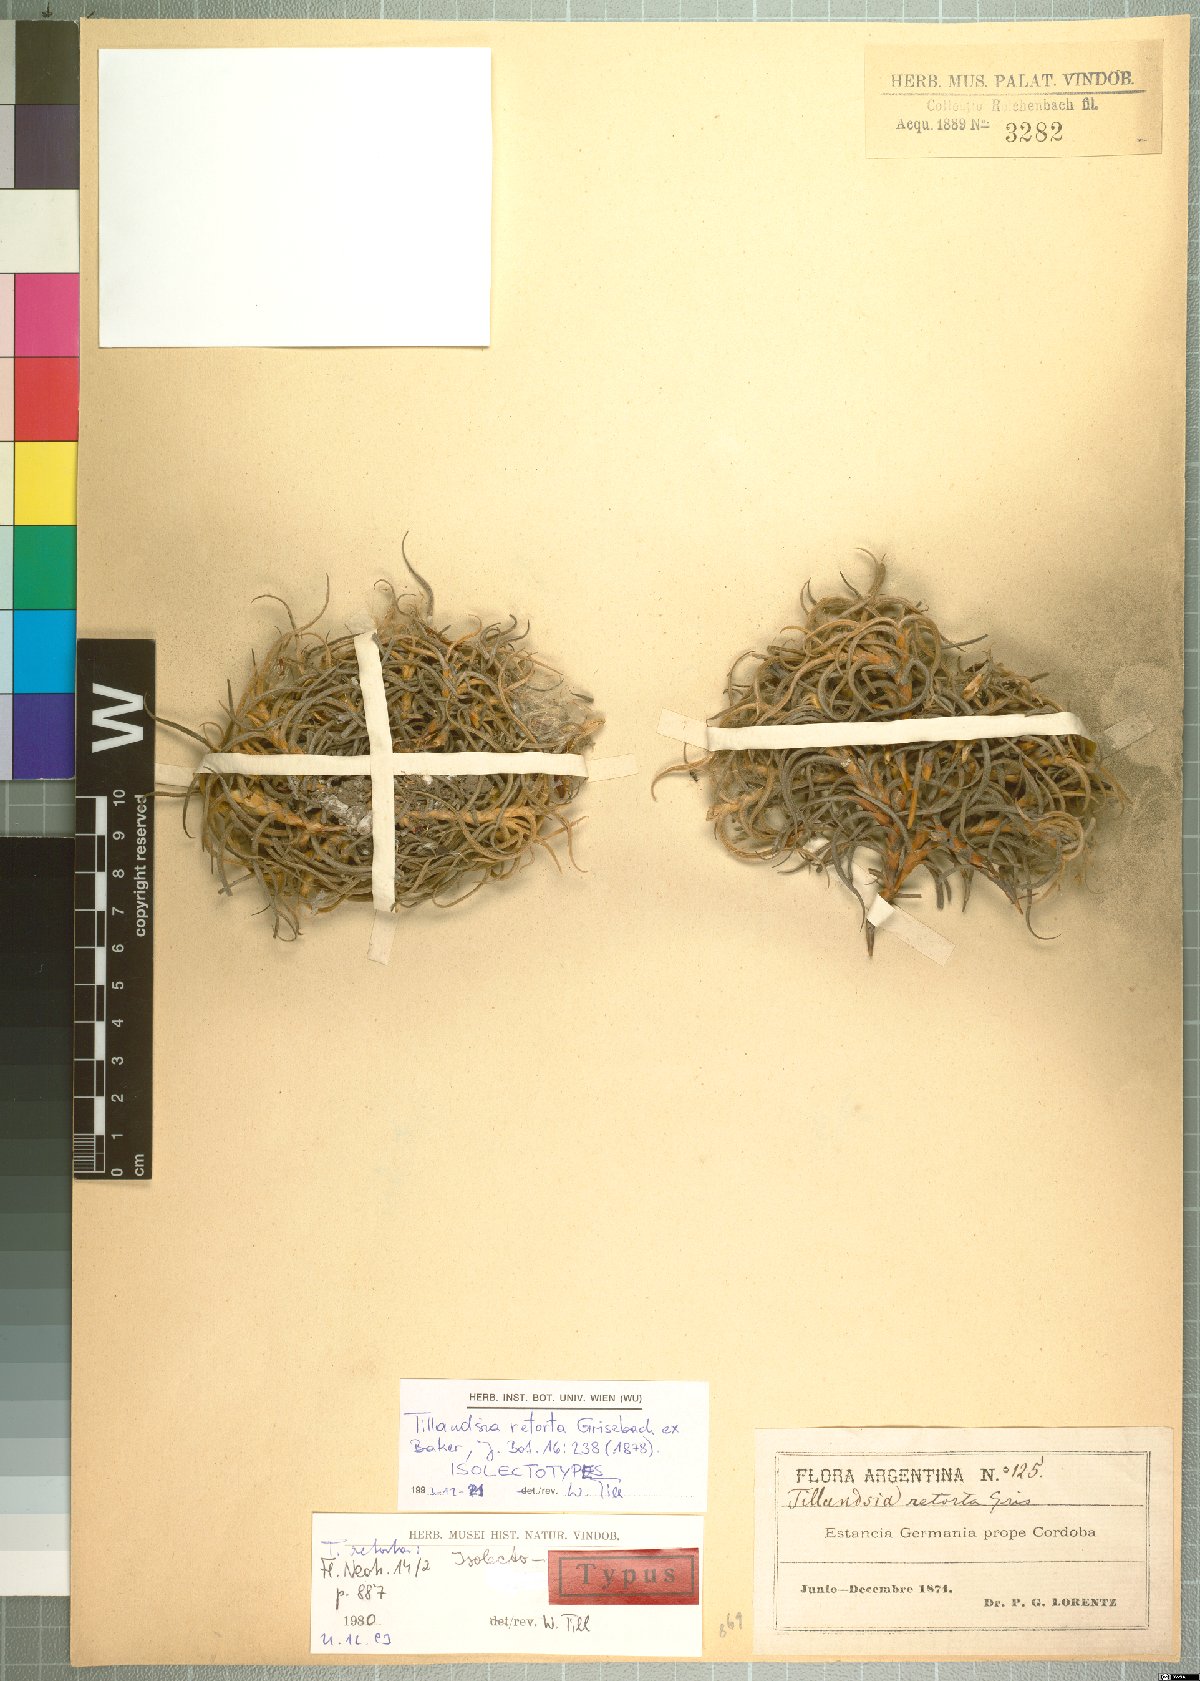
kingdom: Plantae
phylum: Tracheophyta
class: Liliopsida
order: Poales
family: Bromeliaceae
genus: Tillandsia
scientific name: Tillandsia retorta
